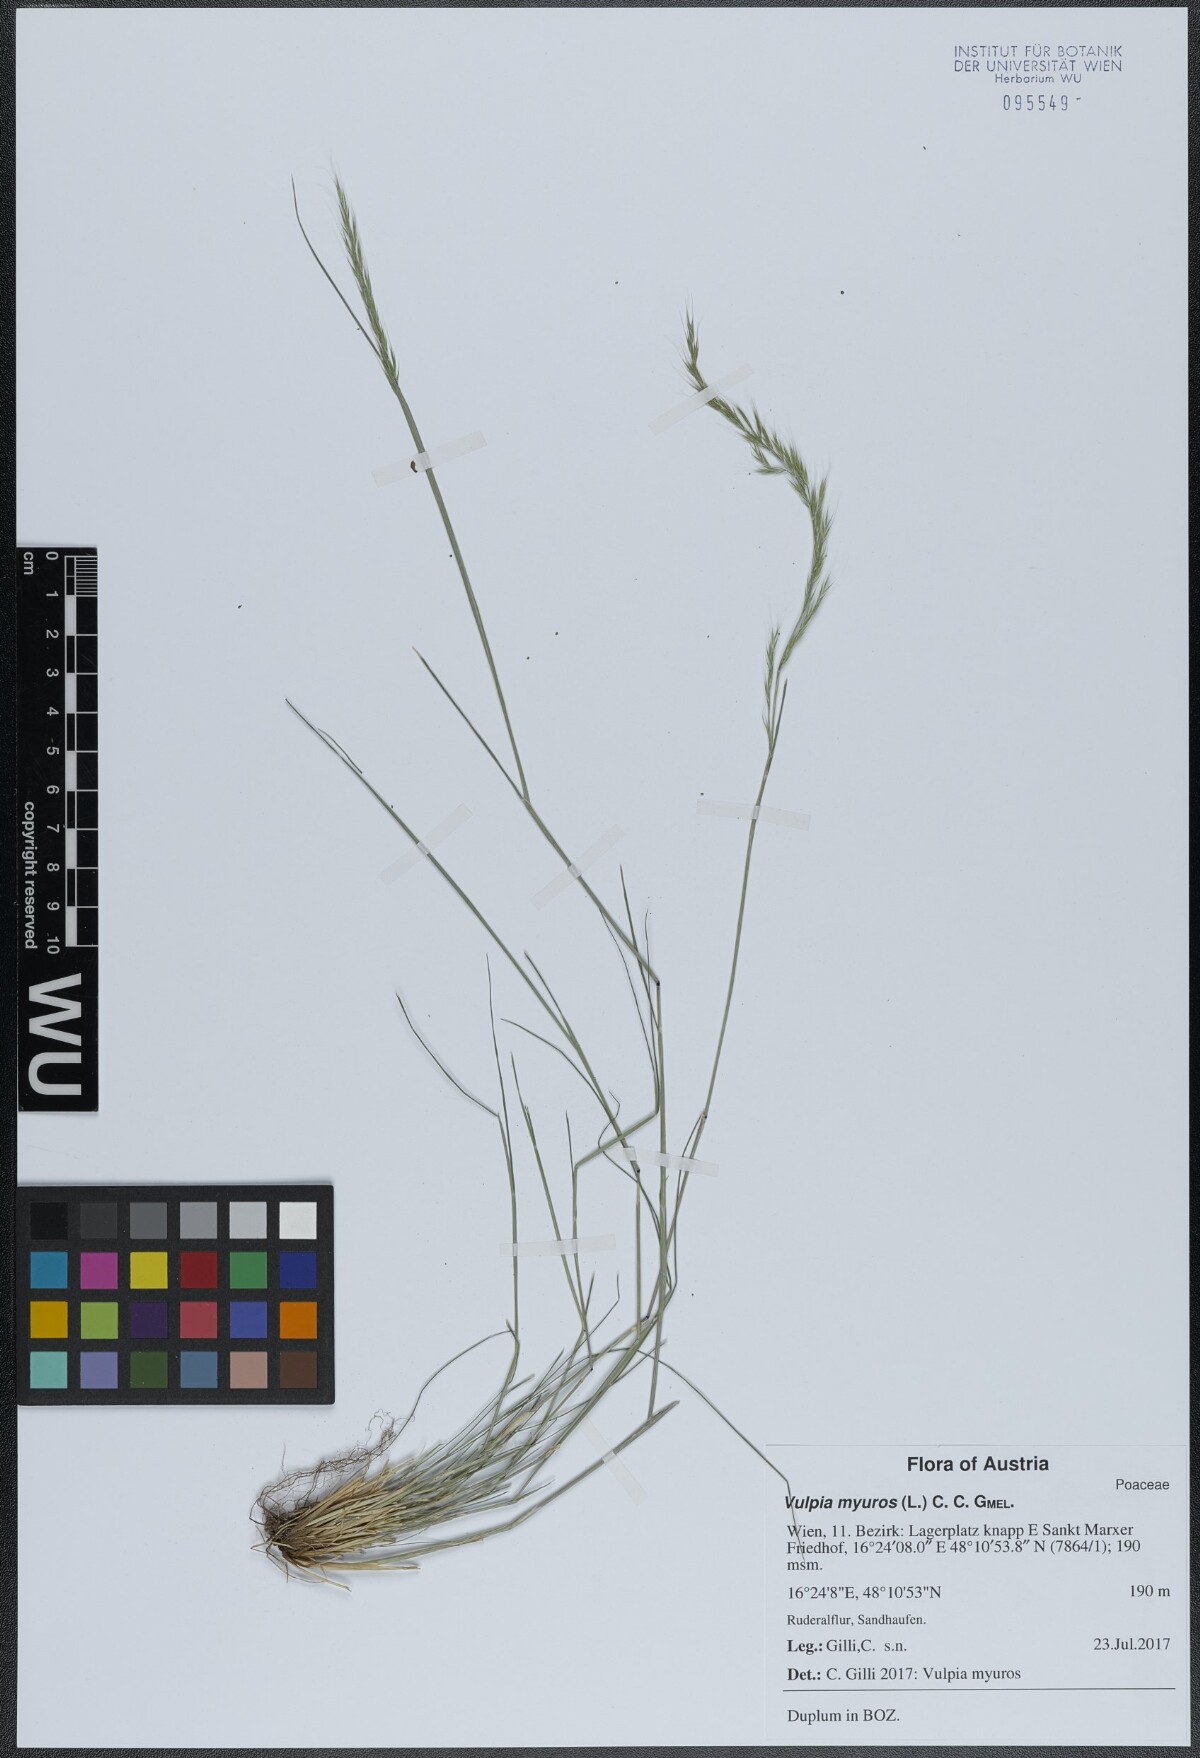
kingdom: Plantae
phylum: Tracheophyta
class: Liliopsida
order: Poales
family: Poaceae
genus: Festuca
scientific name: Festuca myuros
